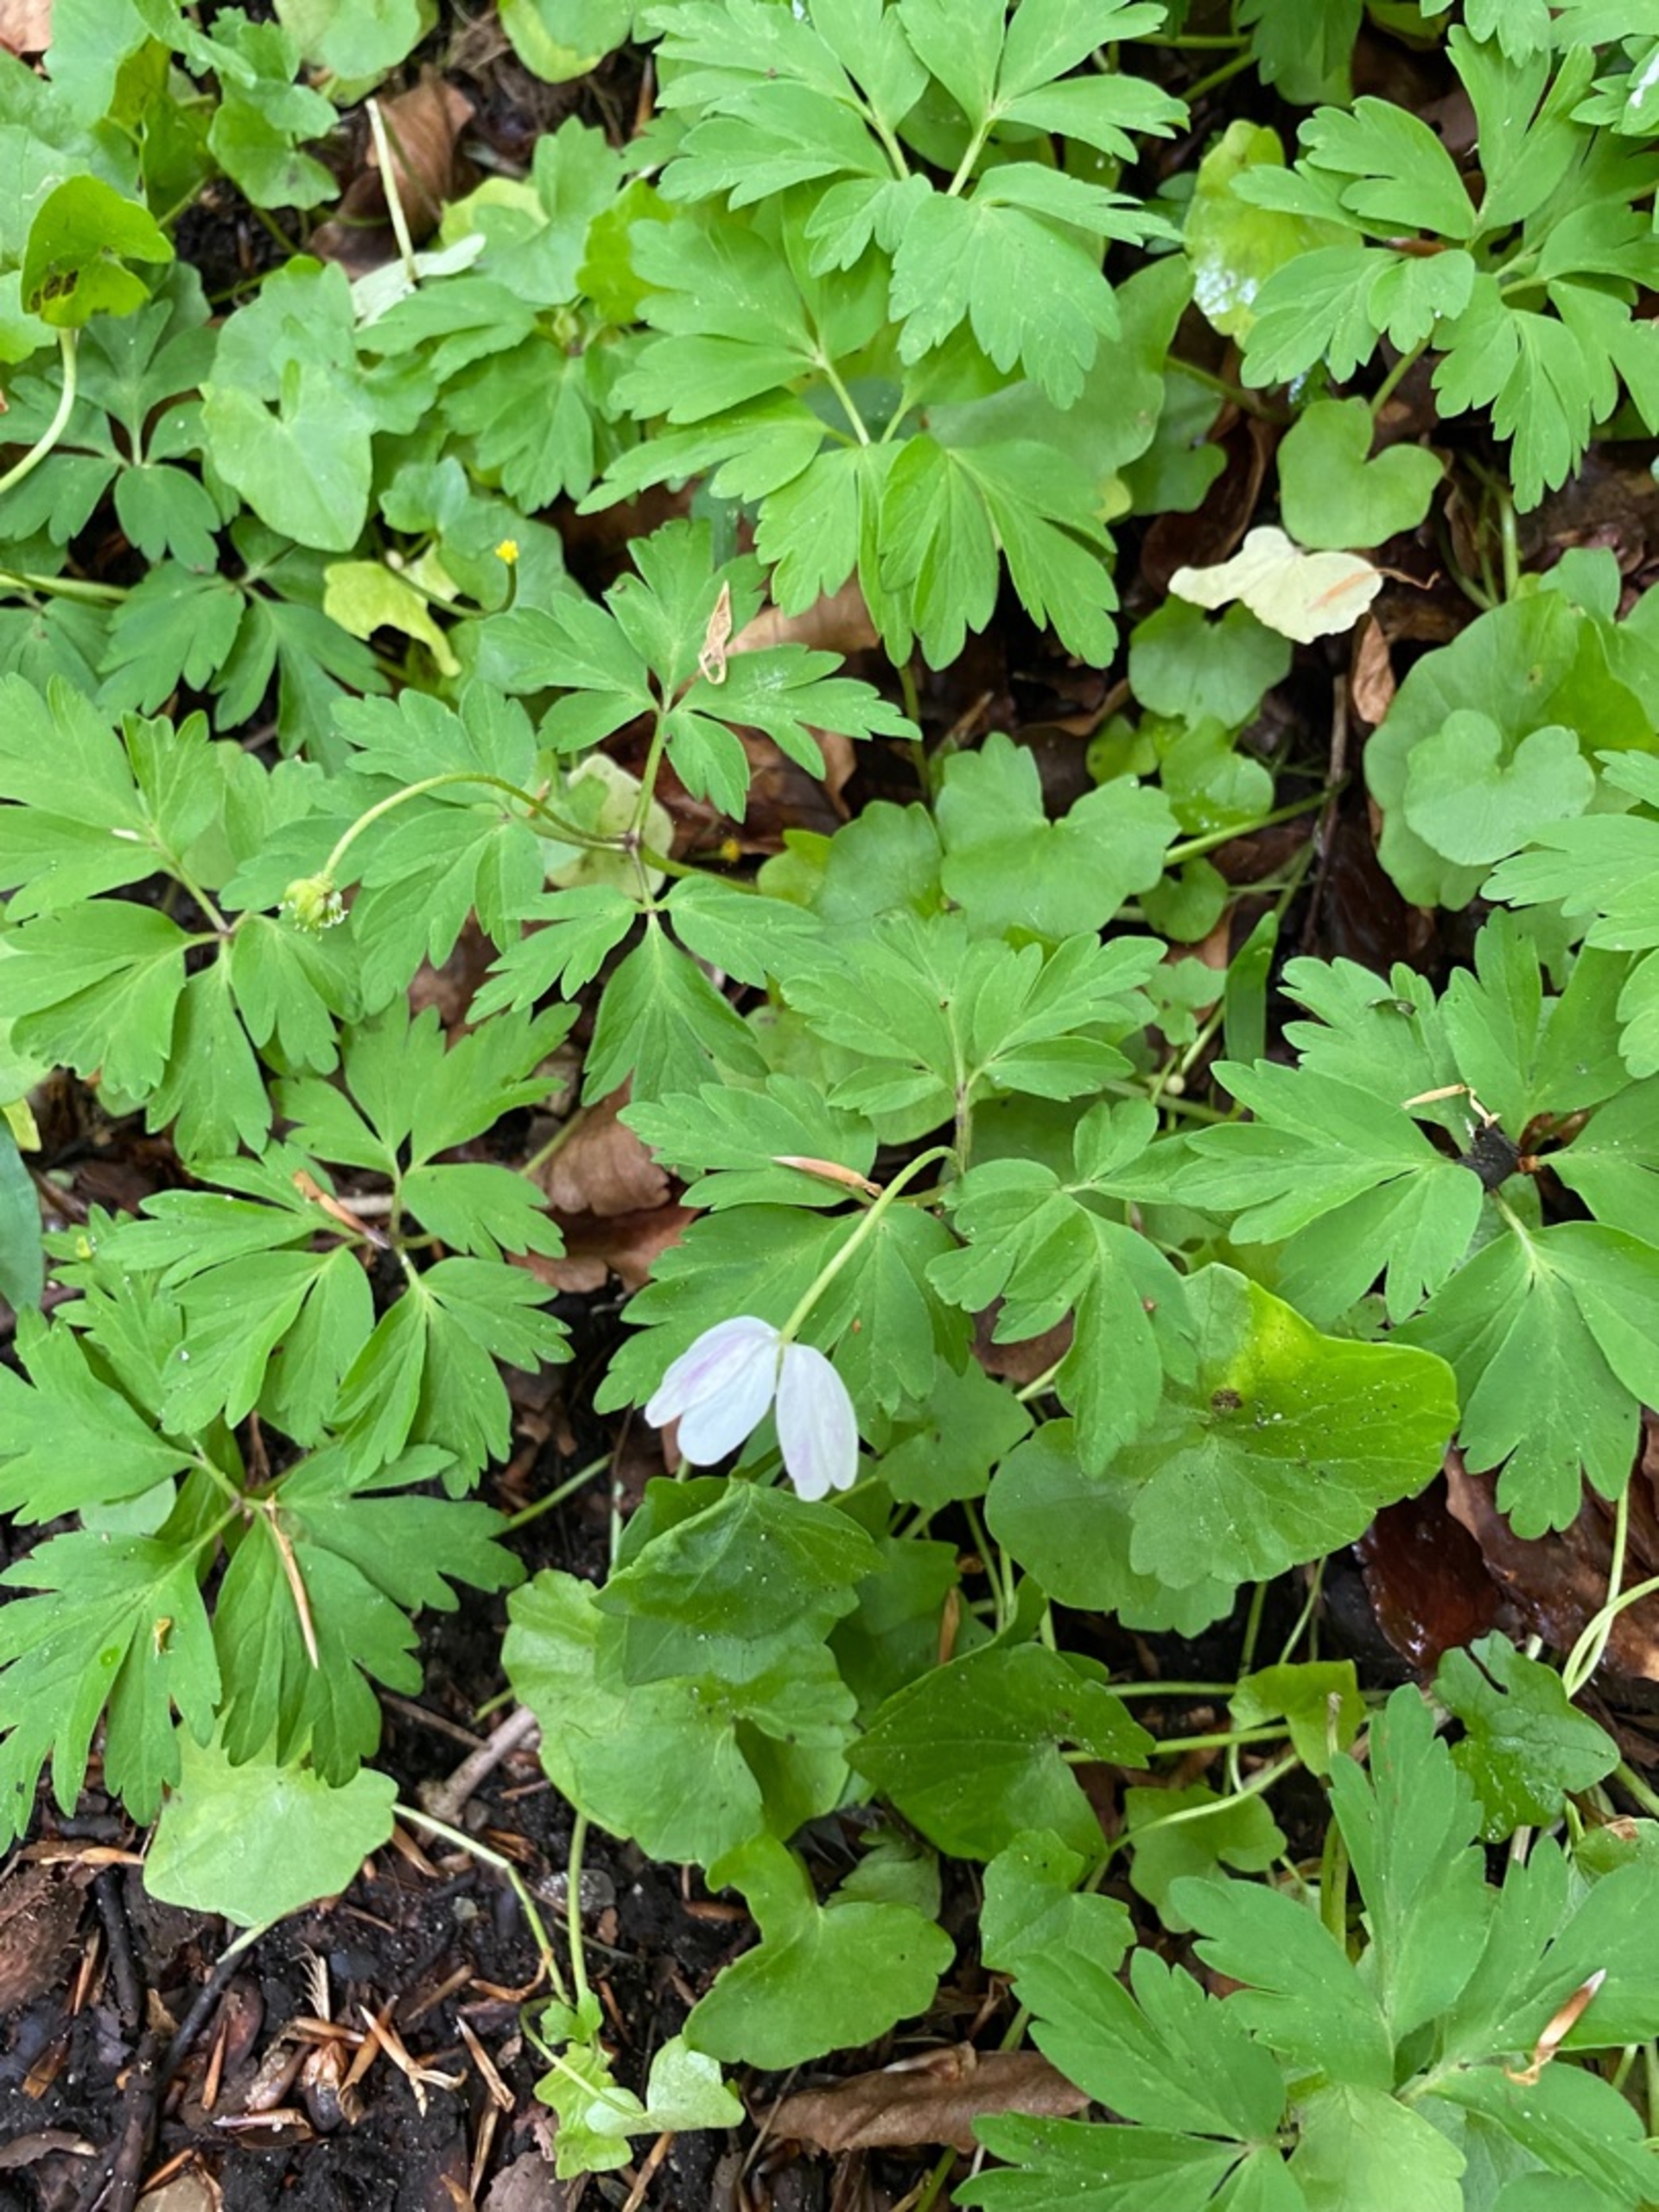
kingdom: Plantae
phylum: Tracheophyta
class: Magnoliopsida
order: Ranunculales
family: Ranunculaceae
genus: Anemone
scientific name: Anemone nemorosa
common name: Hvid anemone
